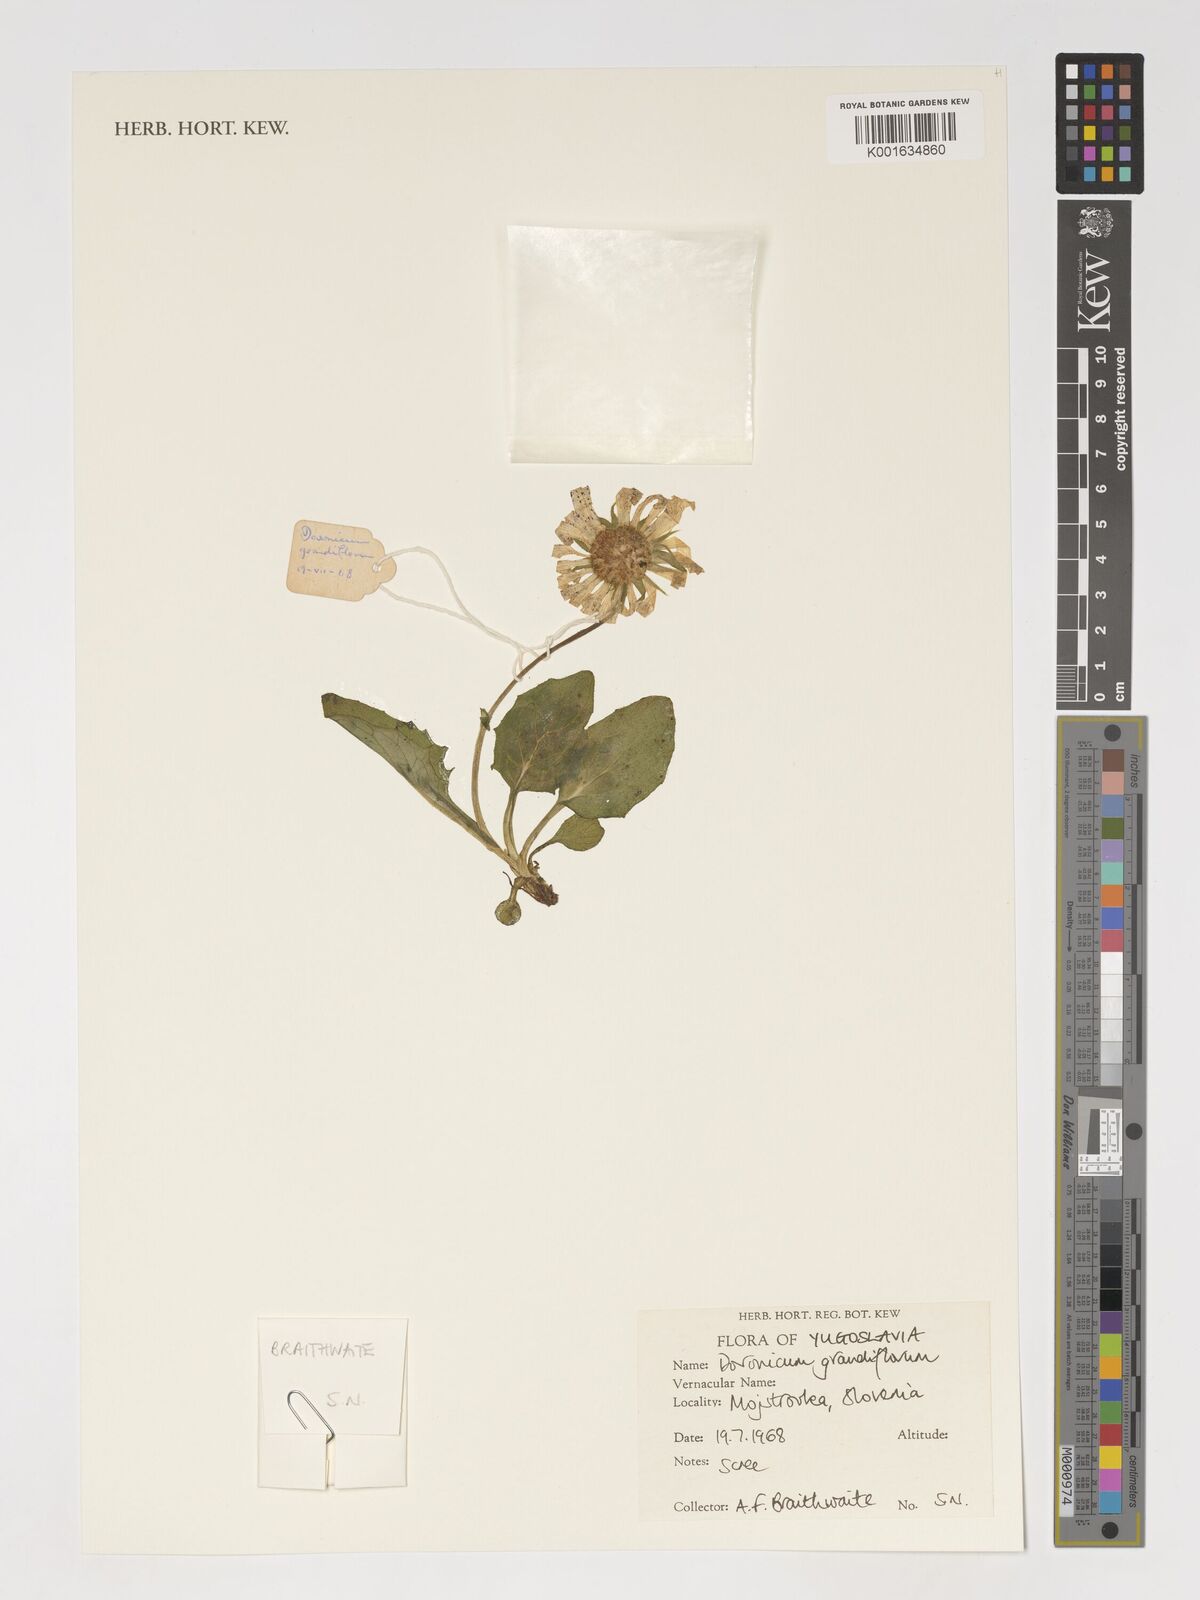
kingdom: Plantae
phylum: Tracheophyta
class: Magnoliopsida
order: Asterales
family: Asteraceae
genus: Doronicum
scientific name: Doronicum grandiflorum
